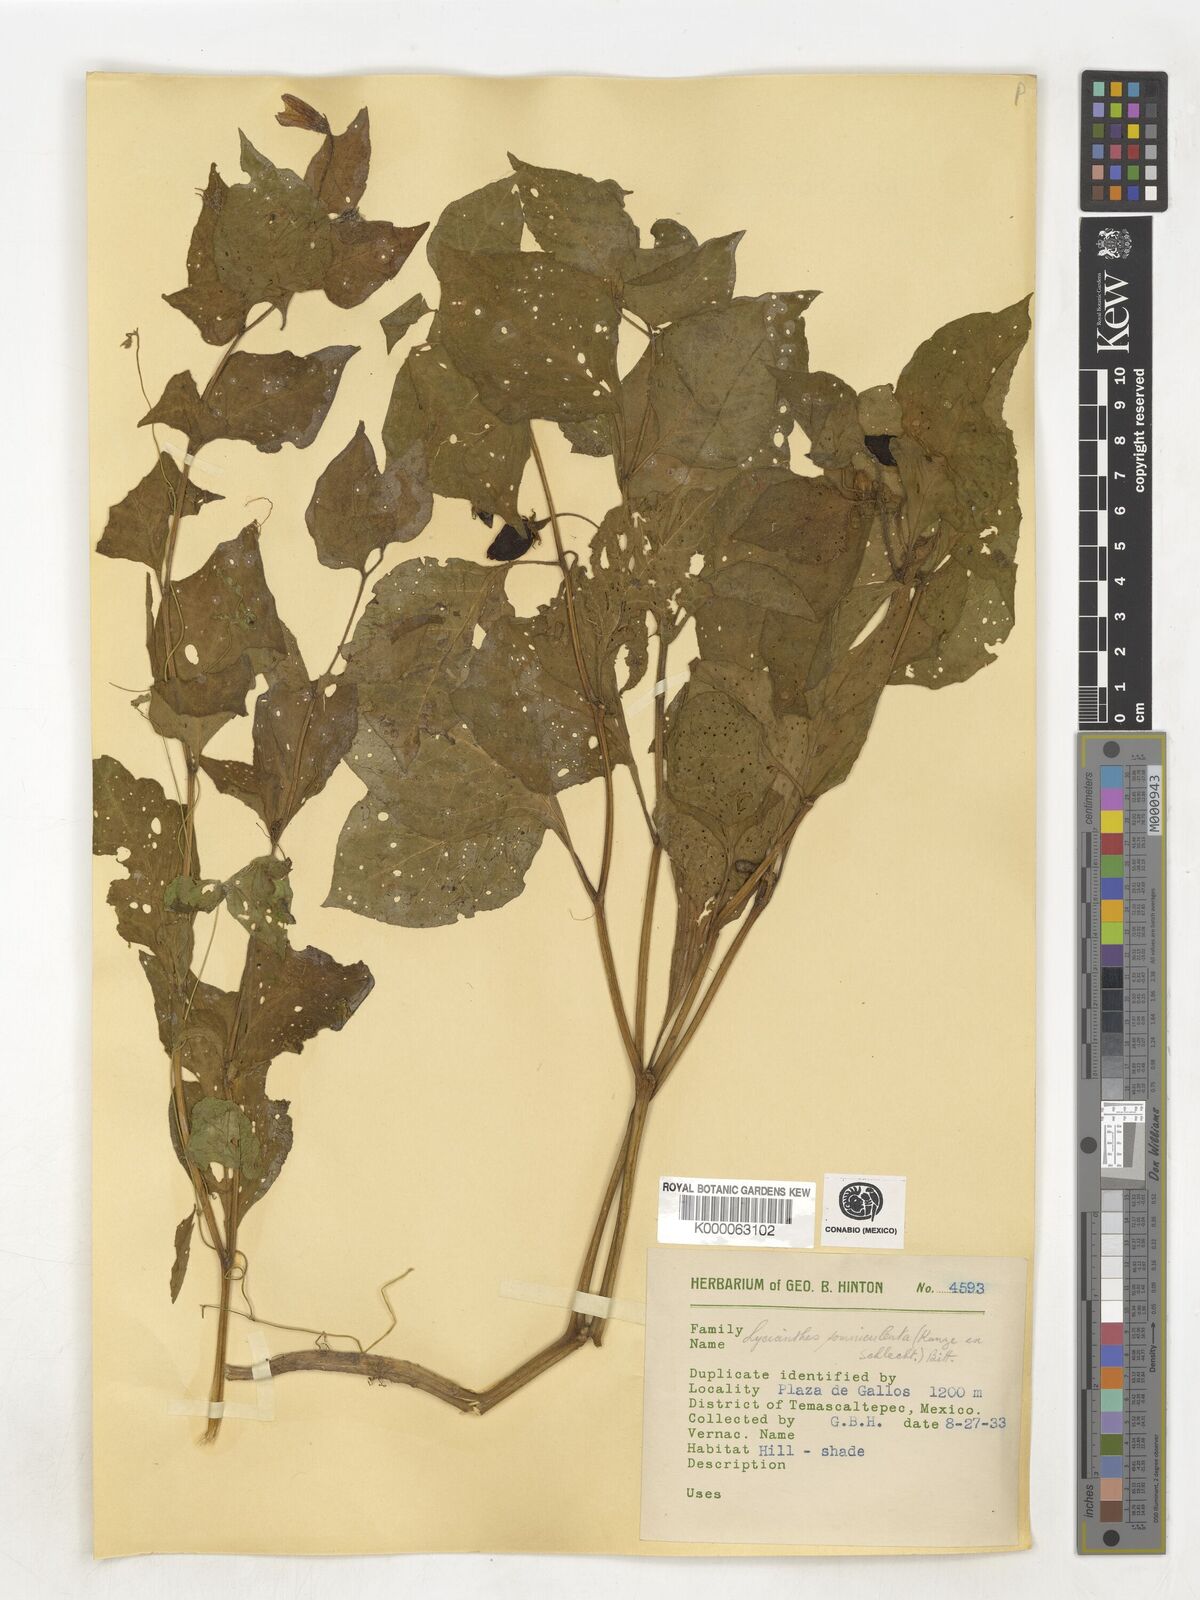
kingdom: Plantae
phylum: Tracheophyta
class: Magnoliopsida
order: Solanales
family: Solanaceae
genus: Lycianthes
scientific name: Lycianthes ciliolata
